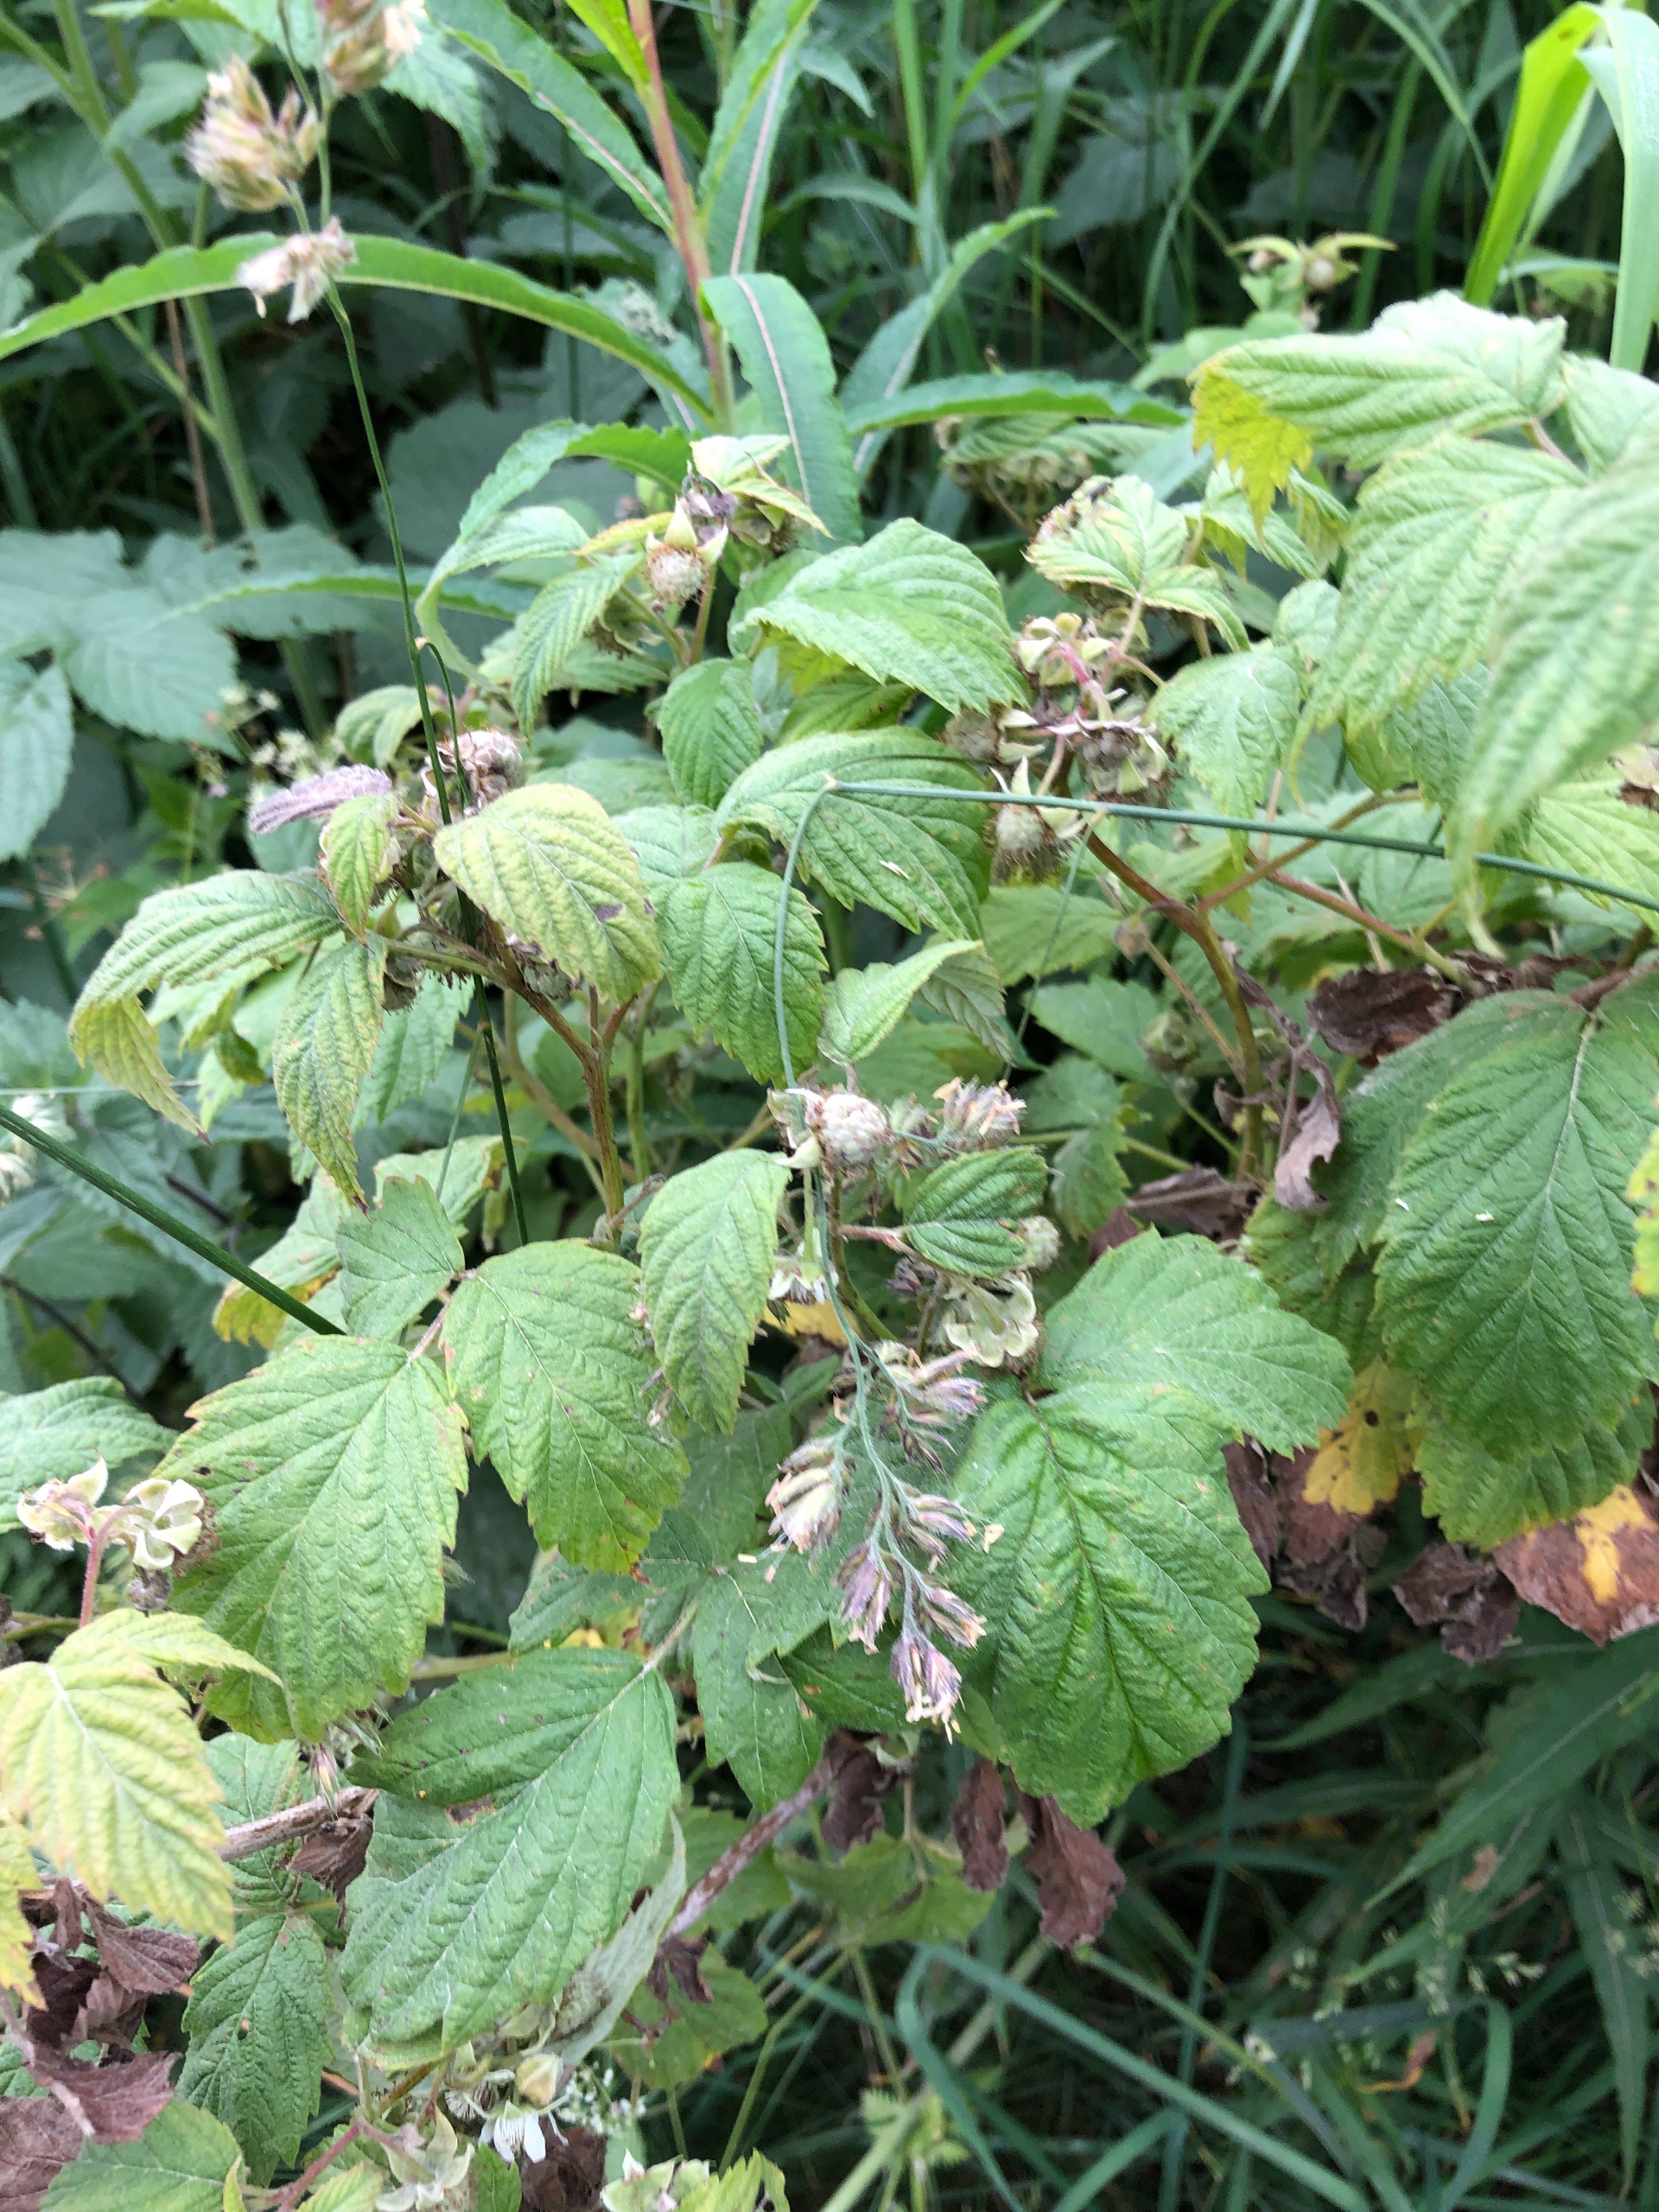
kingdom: Plantae
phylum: Tracheophyta
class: Magnoliopsida
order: Rosales
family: Rosaceae
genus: Rubus
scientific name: Rubus idaeus
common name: Hindbær
